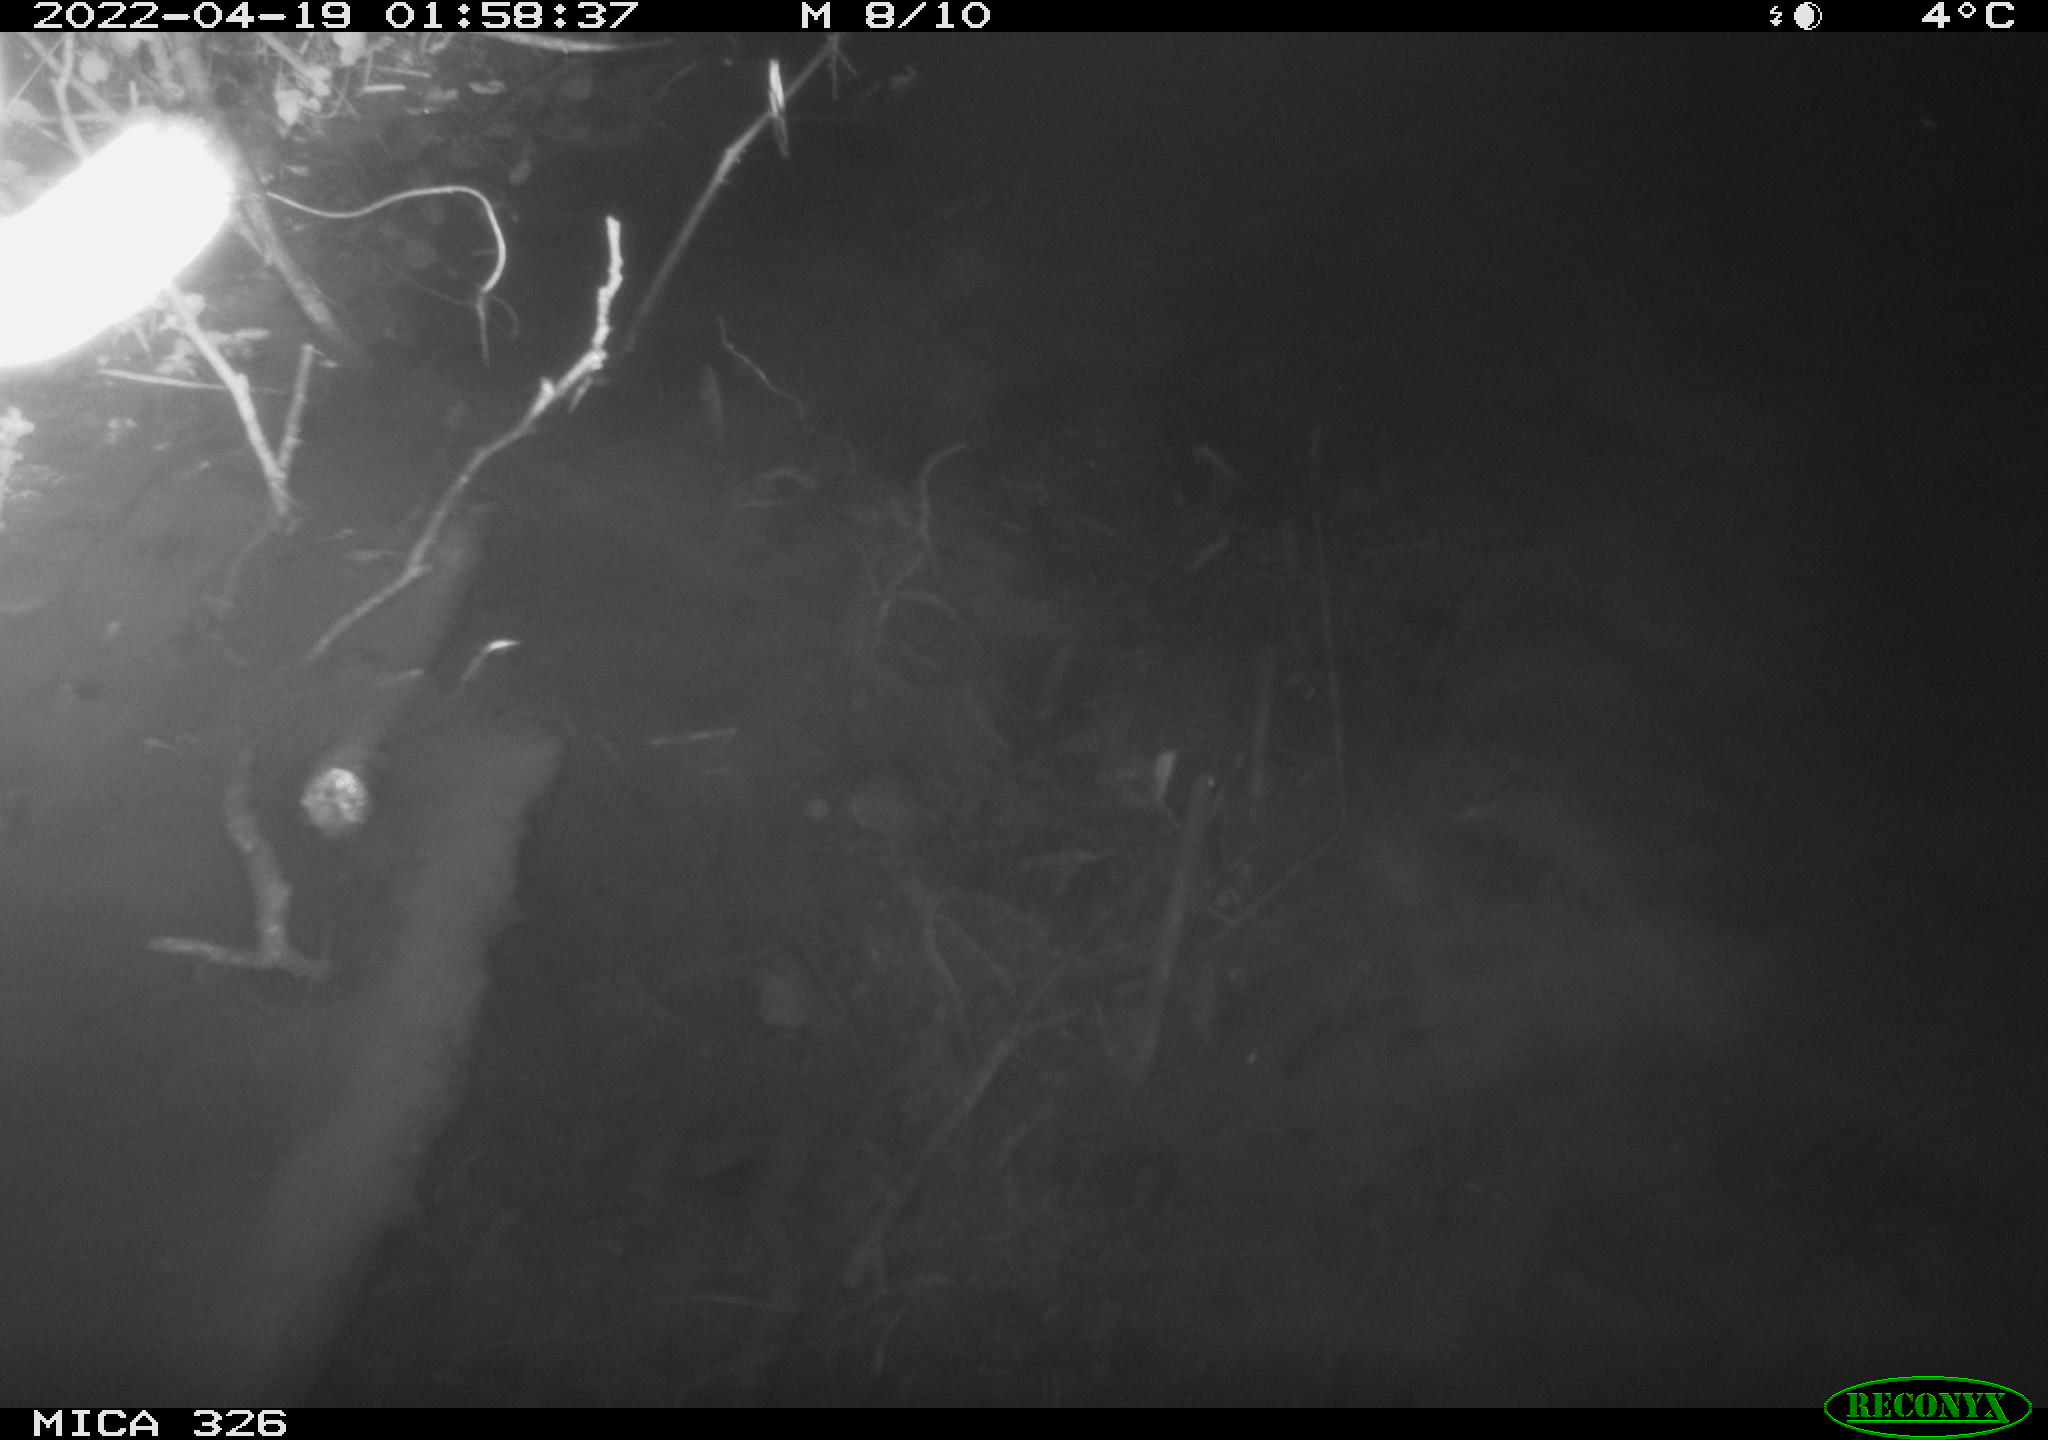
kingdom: Animalia
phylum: Chordata
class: Mammalia
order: Rodentia
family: Muridae
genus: Rattus
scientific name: Rattus norvegicus
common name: Brown rat
